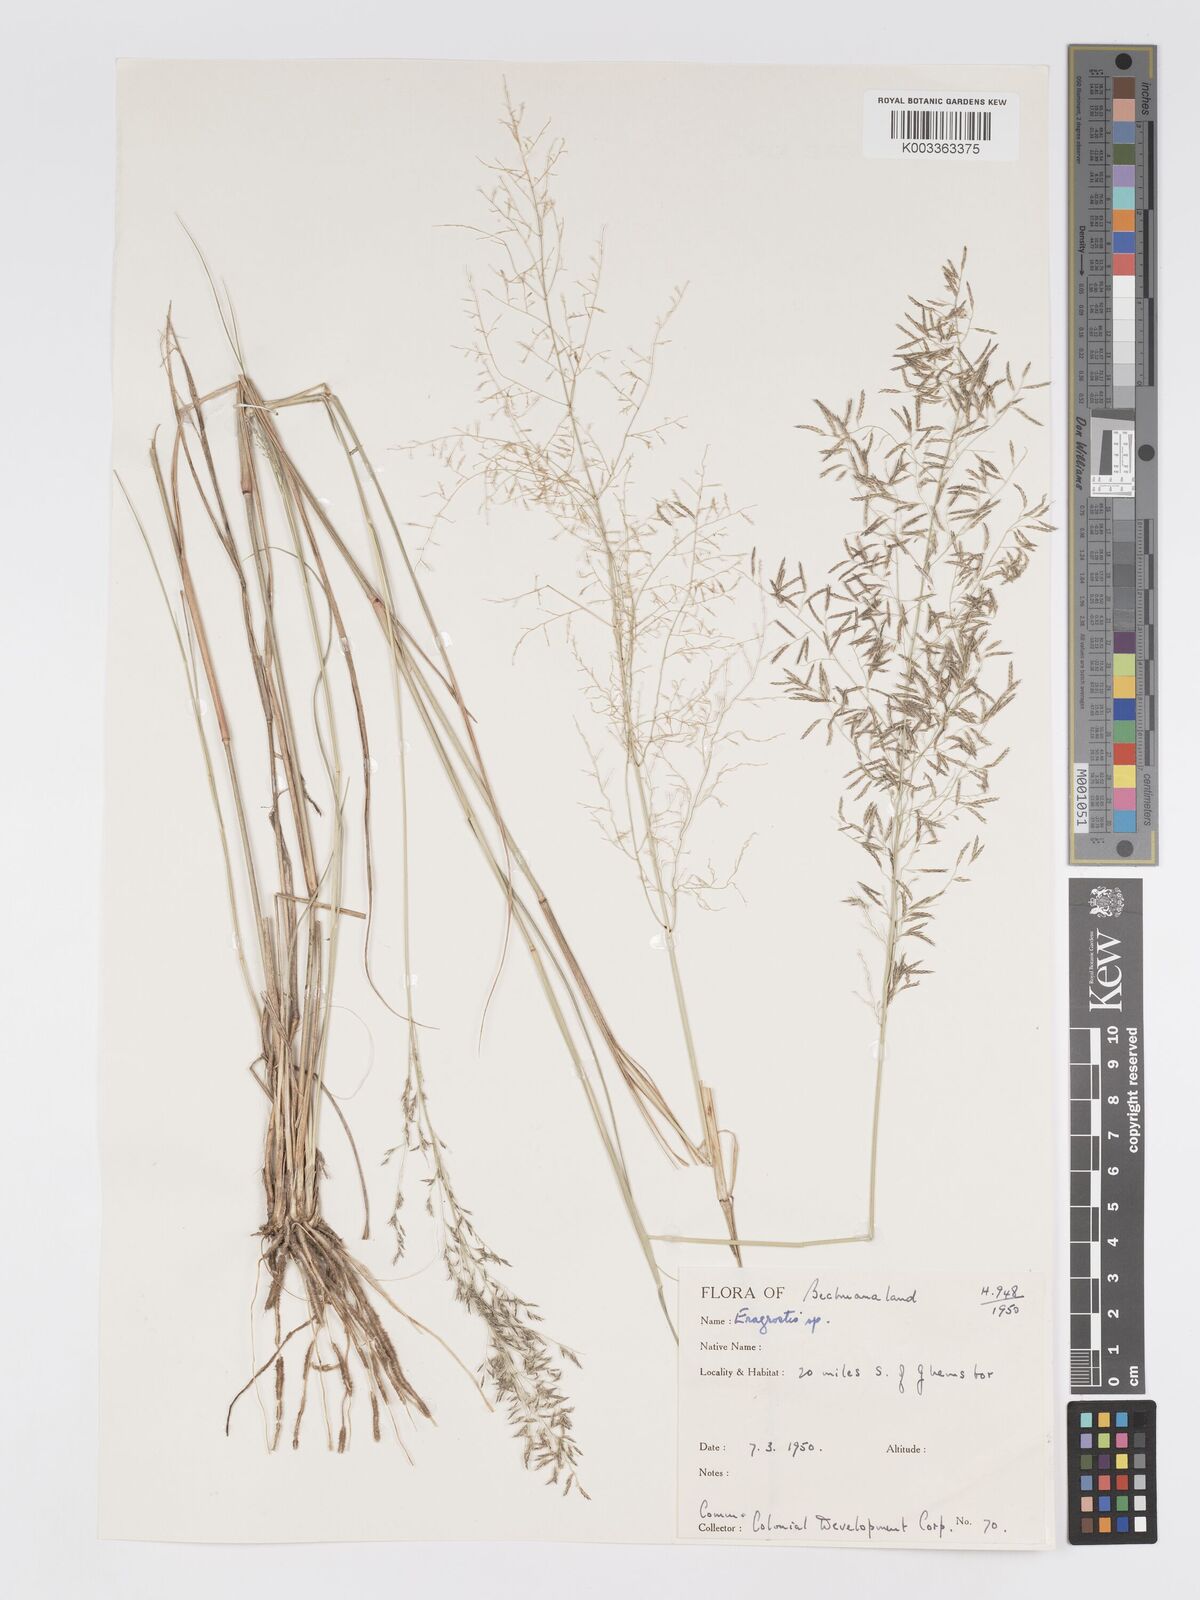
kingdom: Plantae
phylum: Tracheophyta
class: Liliopsida
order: Poales
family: Poaceae
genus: Eragrostis
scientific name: Eragrostis lehmanniana
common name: Lehmann lovegrass
